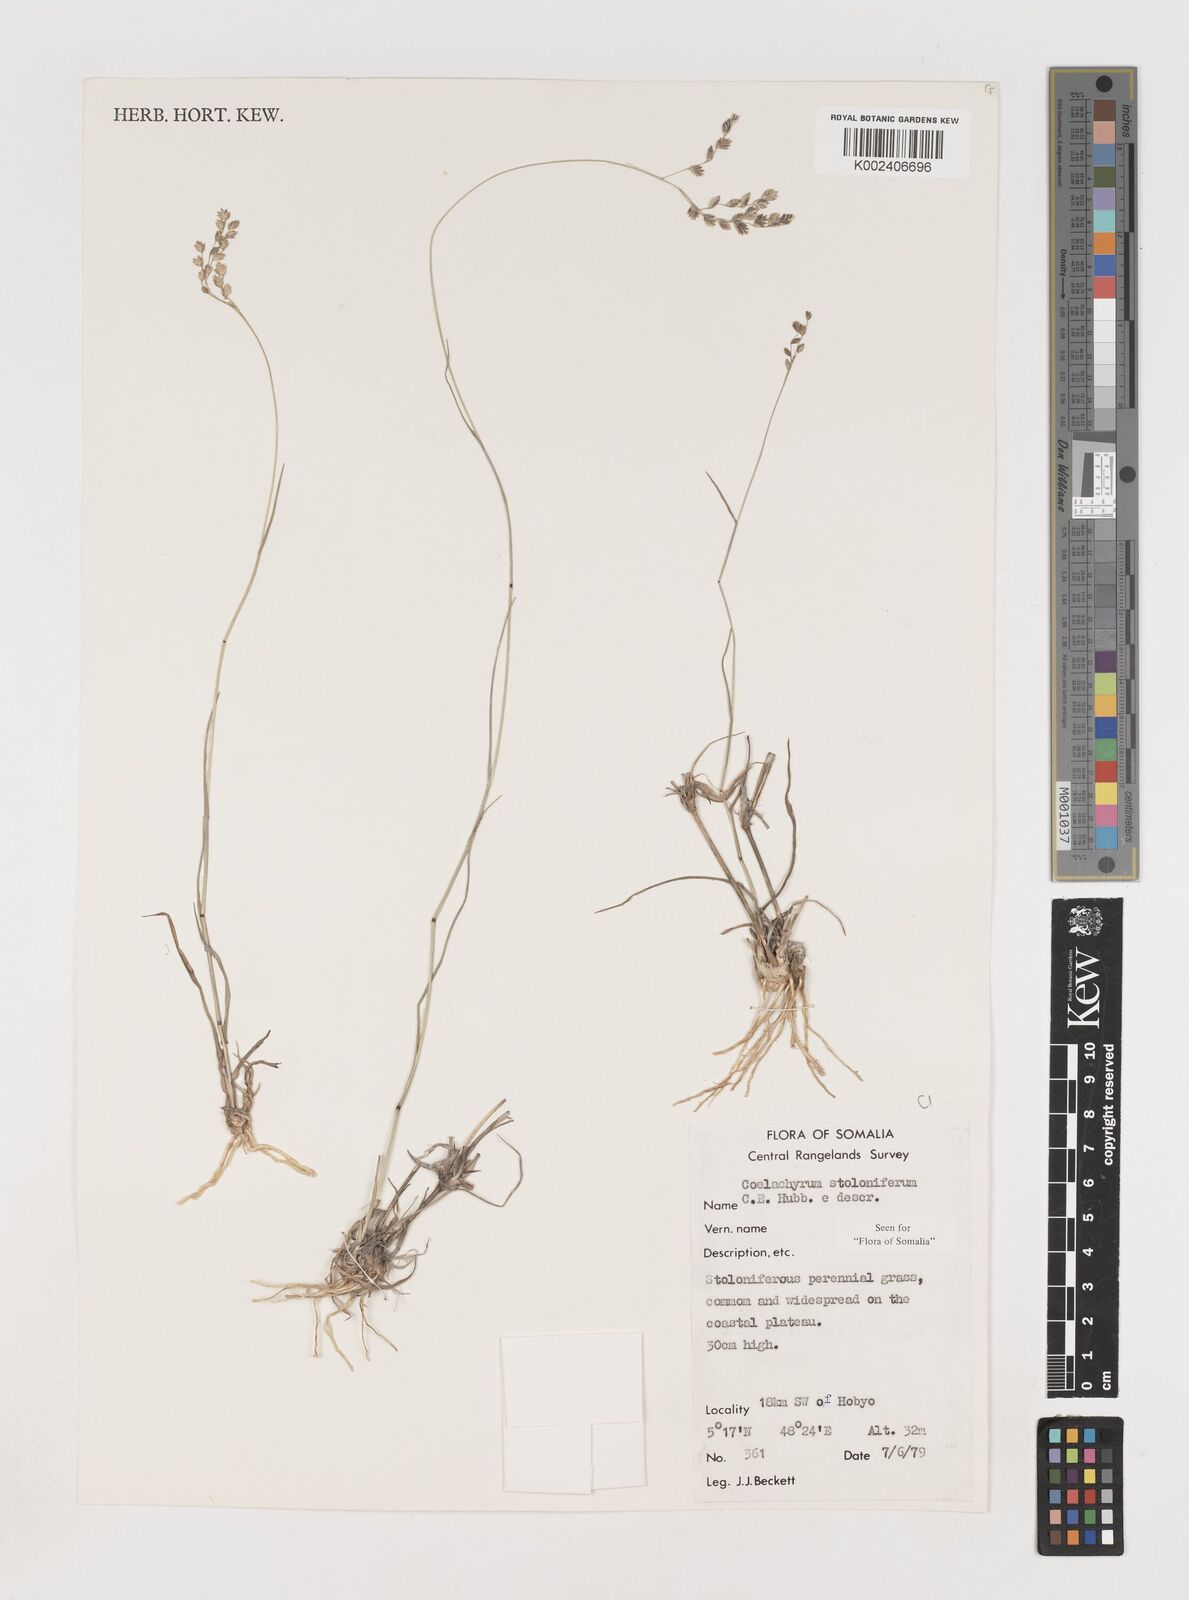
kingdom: Plantae
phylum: Tracheophyta
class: Liliopsida
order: Poales
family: Poaceae
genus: Coelachyrum
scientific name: Coelachyrum piercei
